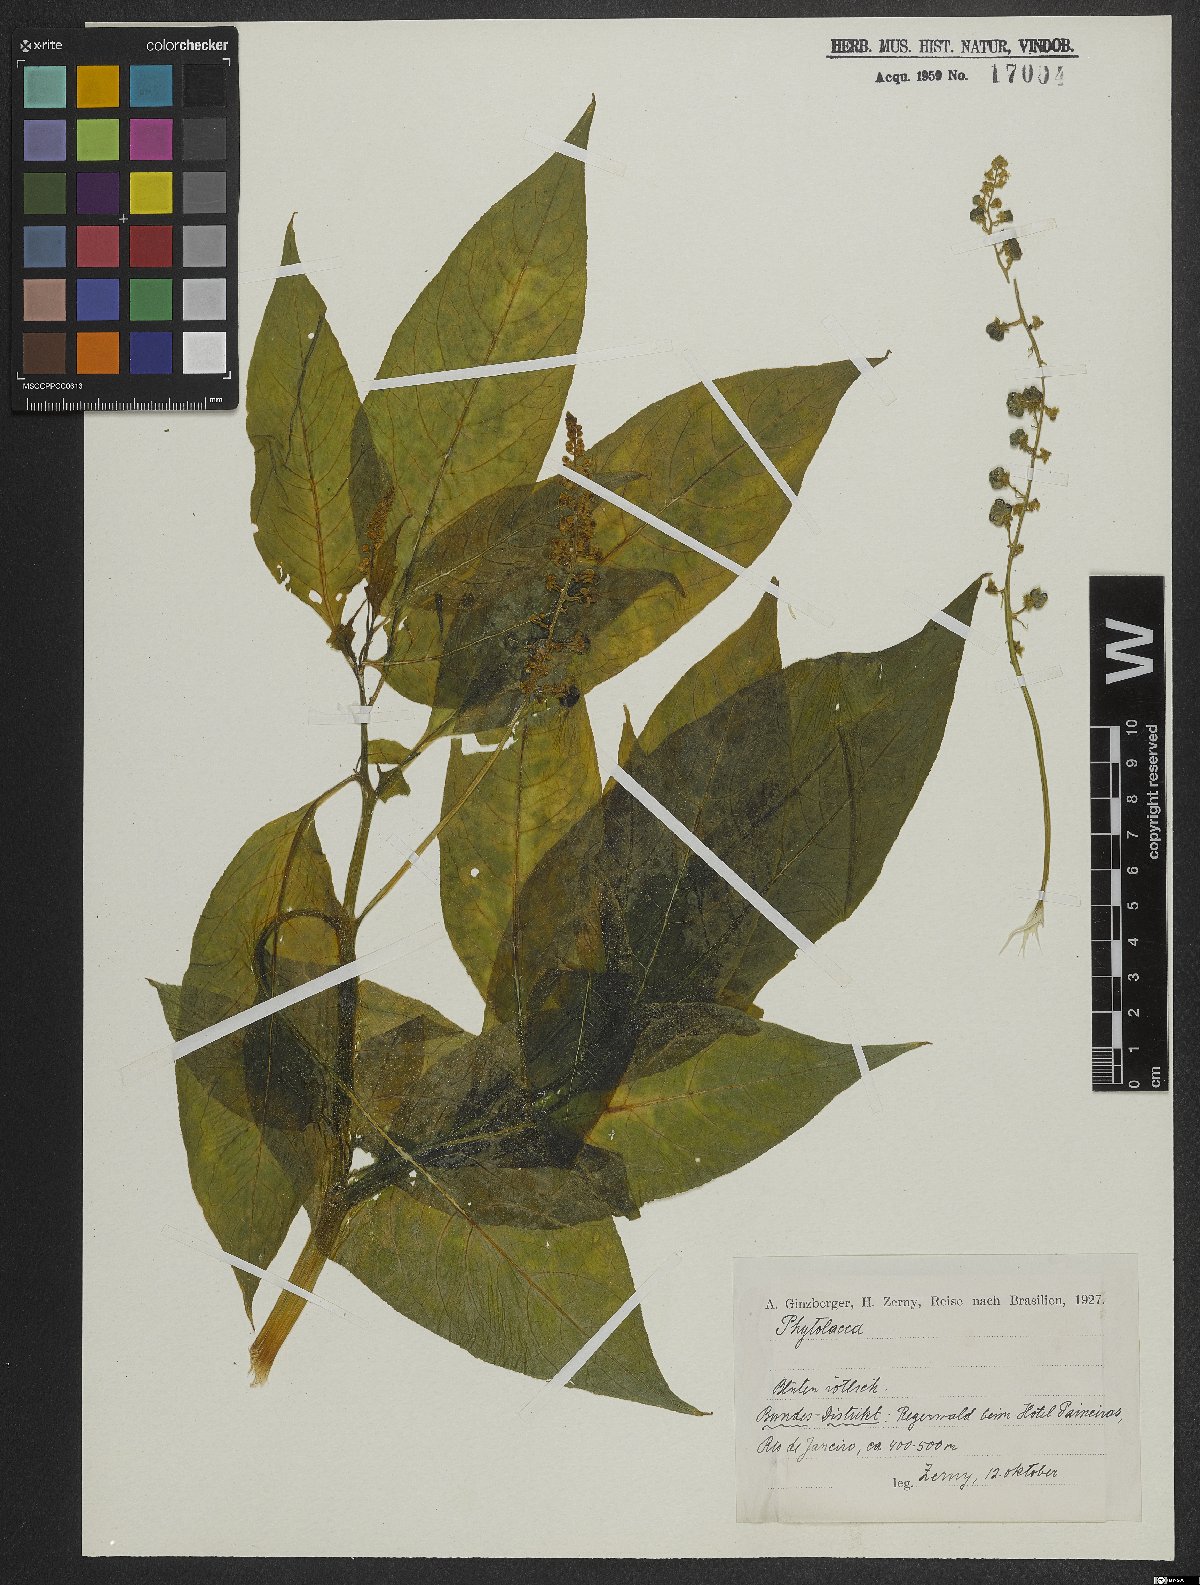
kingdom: Plantae
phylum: Tracheophyta
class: Magnoliopsida
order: Caryophyllales
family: Phytolaccaceae
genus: Phytolacca
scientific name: Phytolacca
